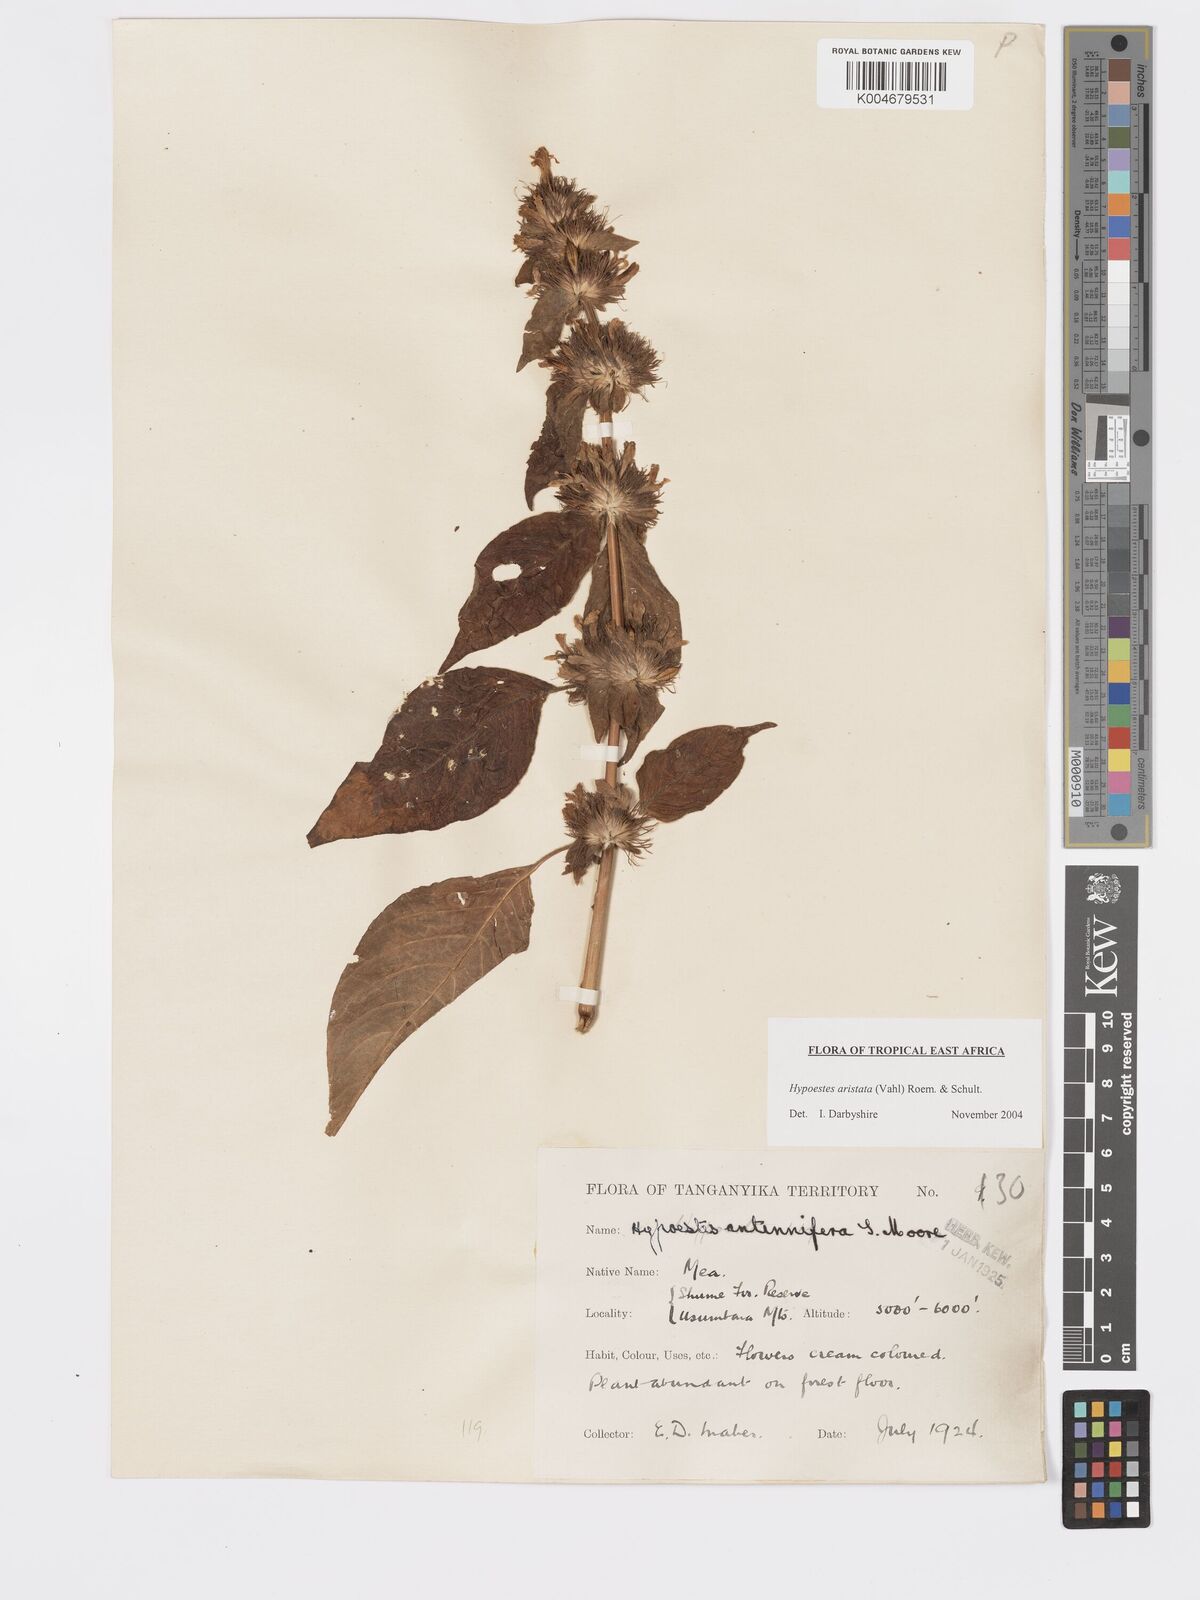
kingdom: Plantae
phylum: Tracheophyta
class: Magnoliopsida
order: Lamiales
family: Acanthaceae
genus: Hypoestes
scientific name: Hypoestes aristata
